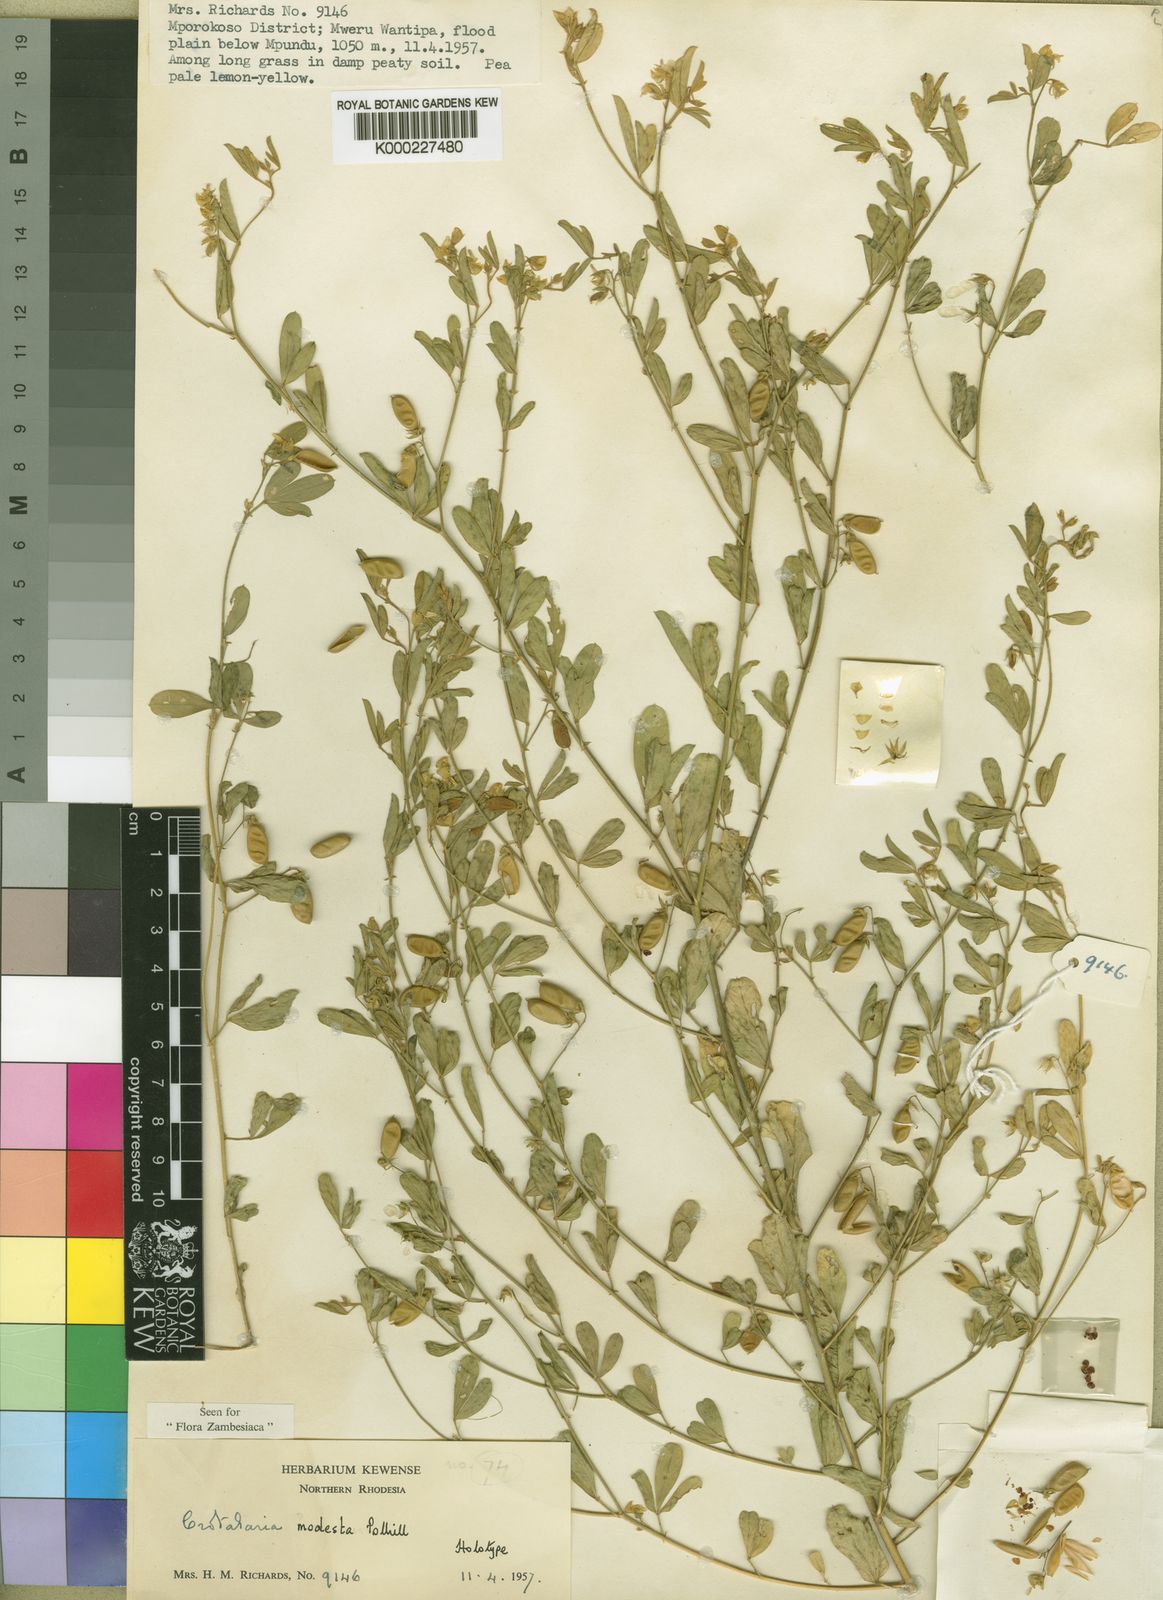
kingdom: Plantae
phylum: Tracheophyta
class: Magnoliopsida
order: Fabales
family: Fabaceae
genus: Crotalaria
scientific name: Crotalaria modesta
